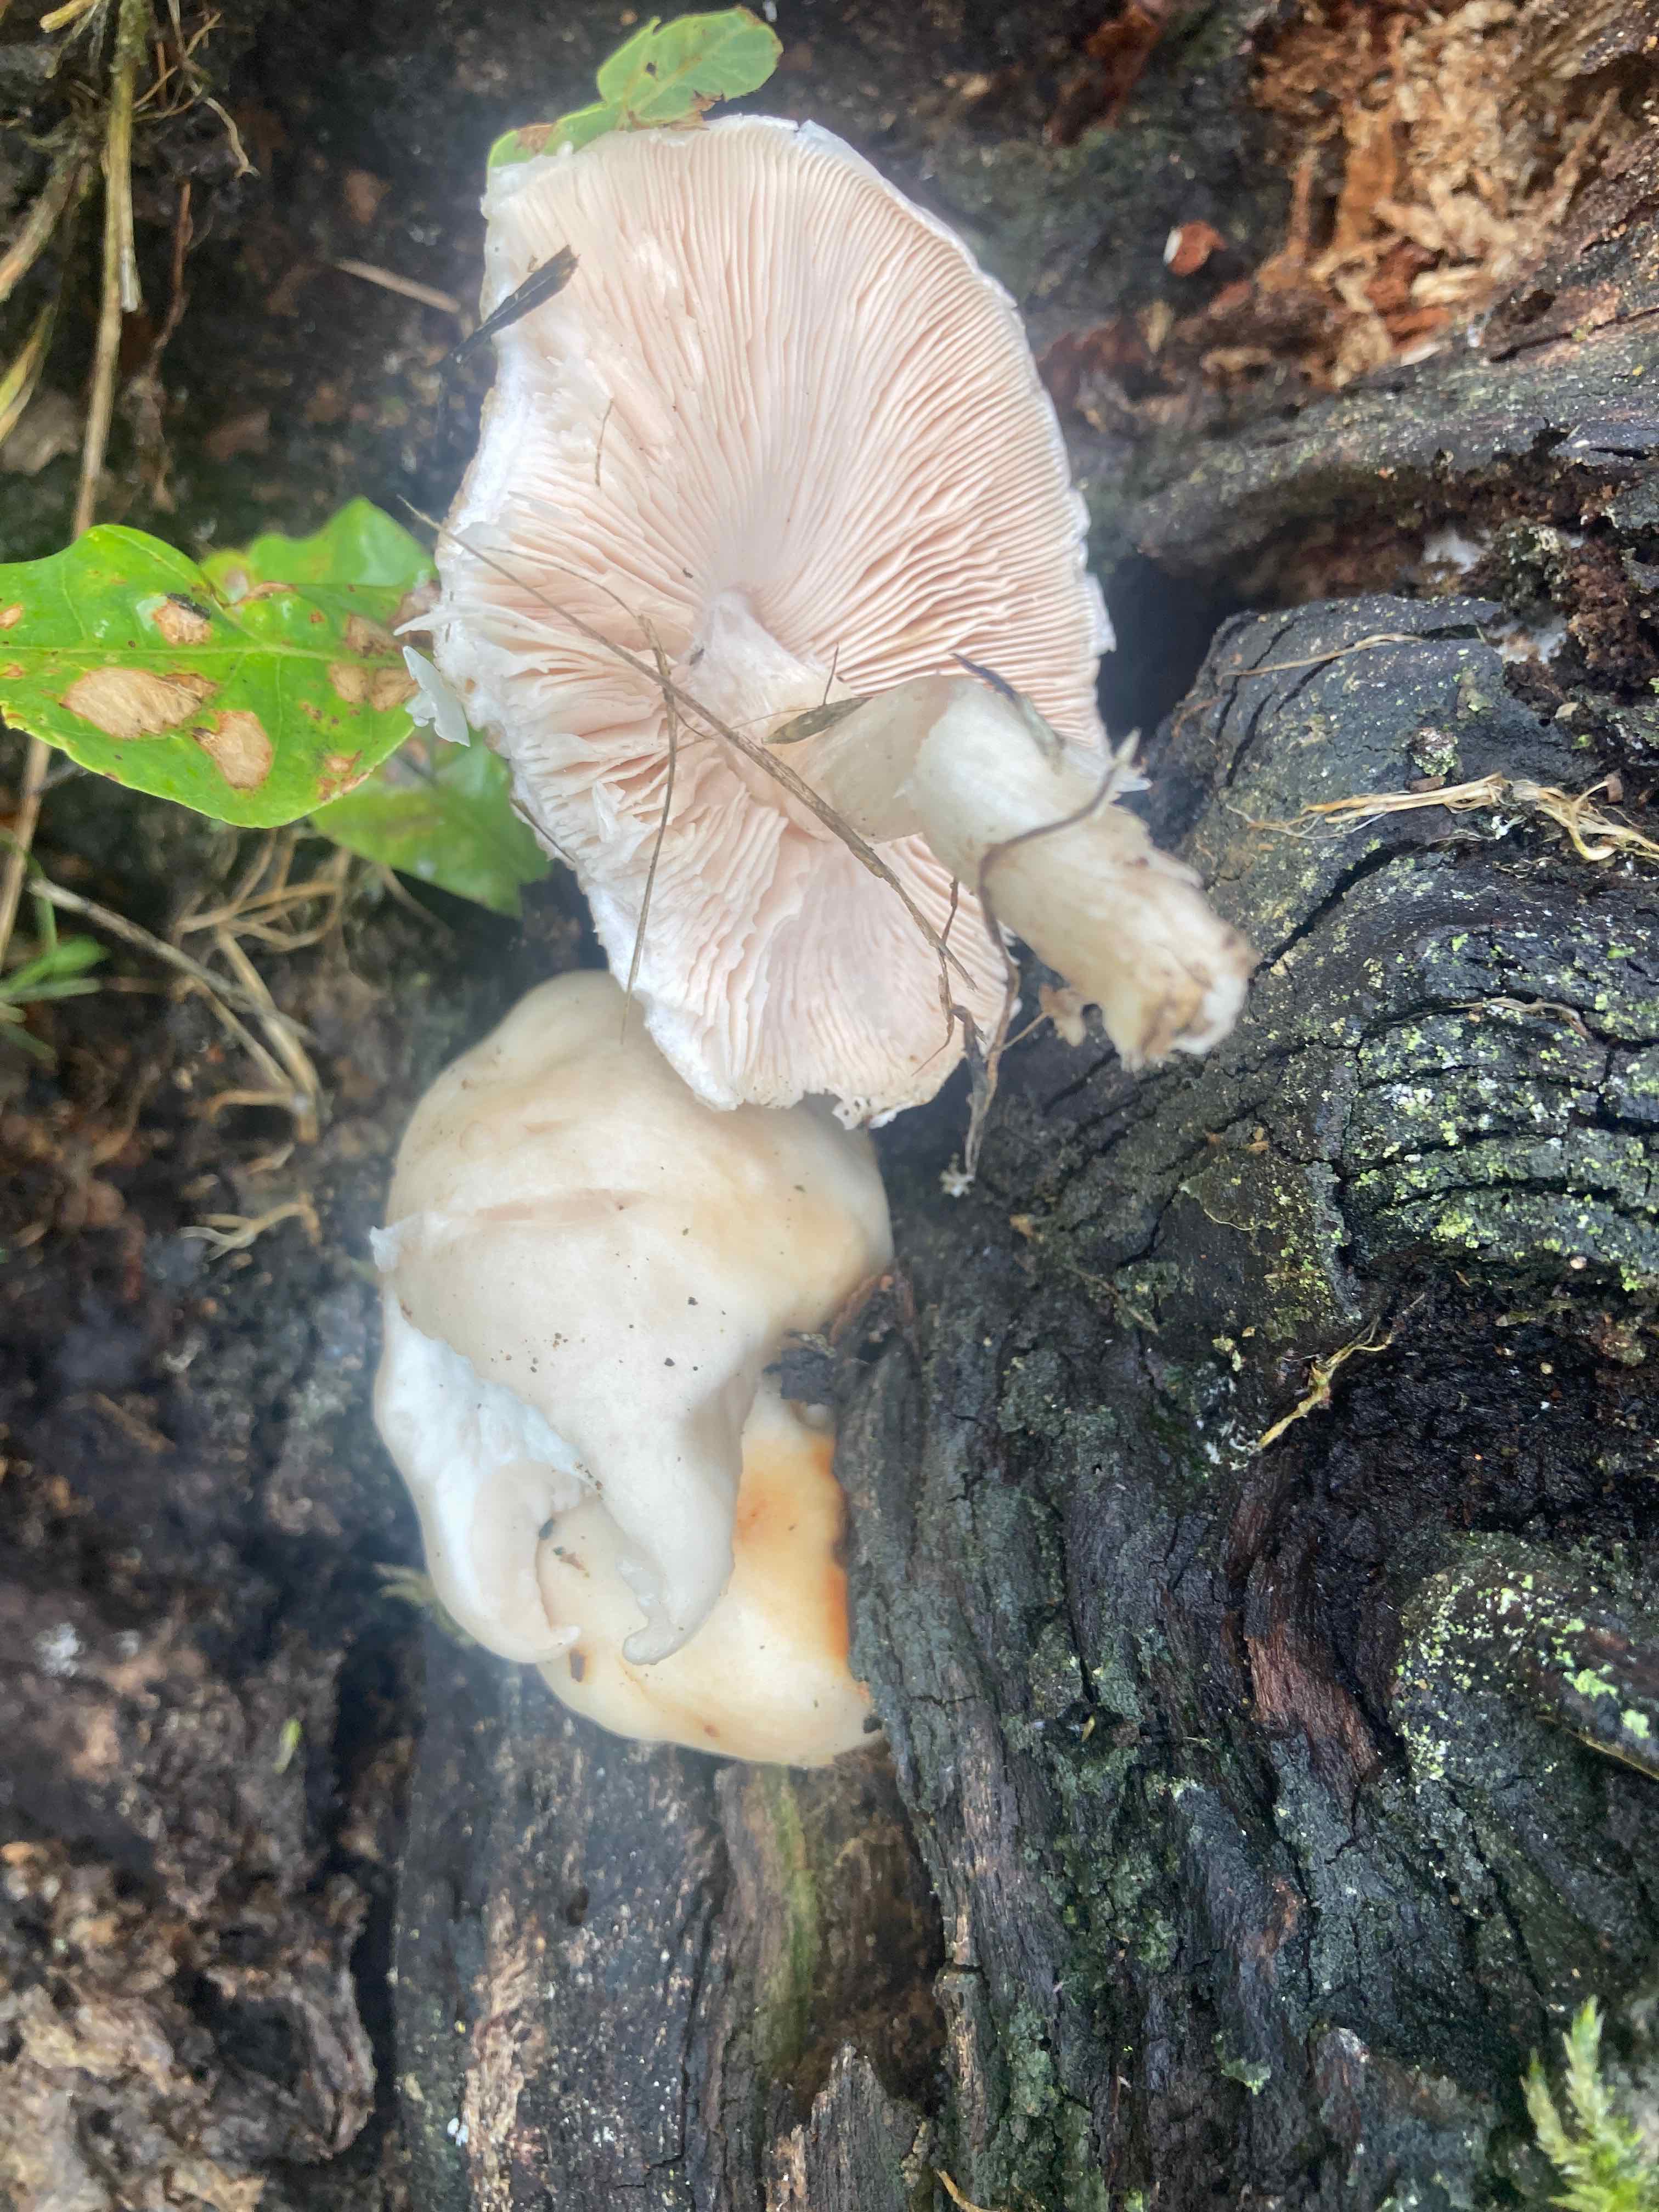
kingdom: Fungi
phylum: Basidiomycota
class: Agaricomycetes
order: Agaricales
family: Pluteaceae
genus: Pluteus
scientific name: Pluteus petasatus
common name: savsmulds-skærmhat
